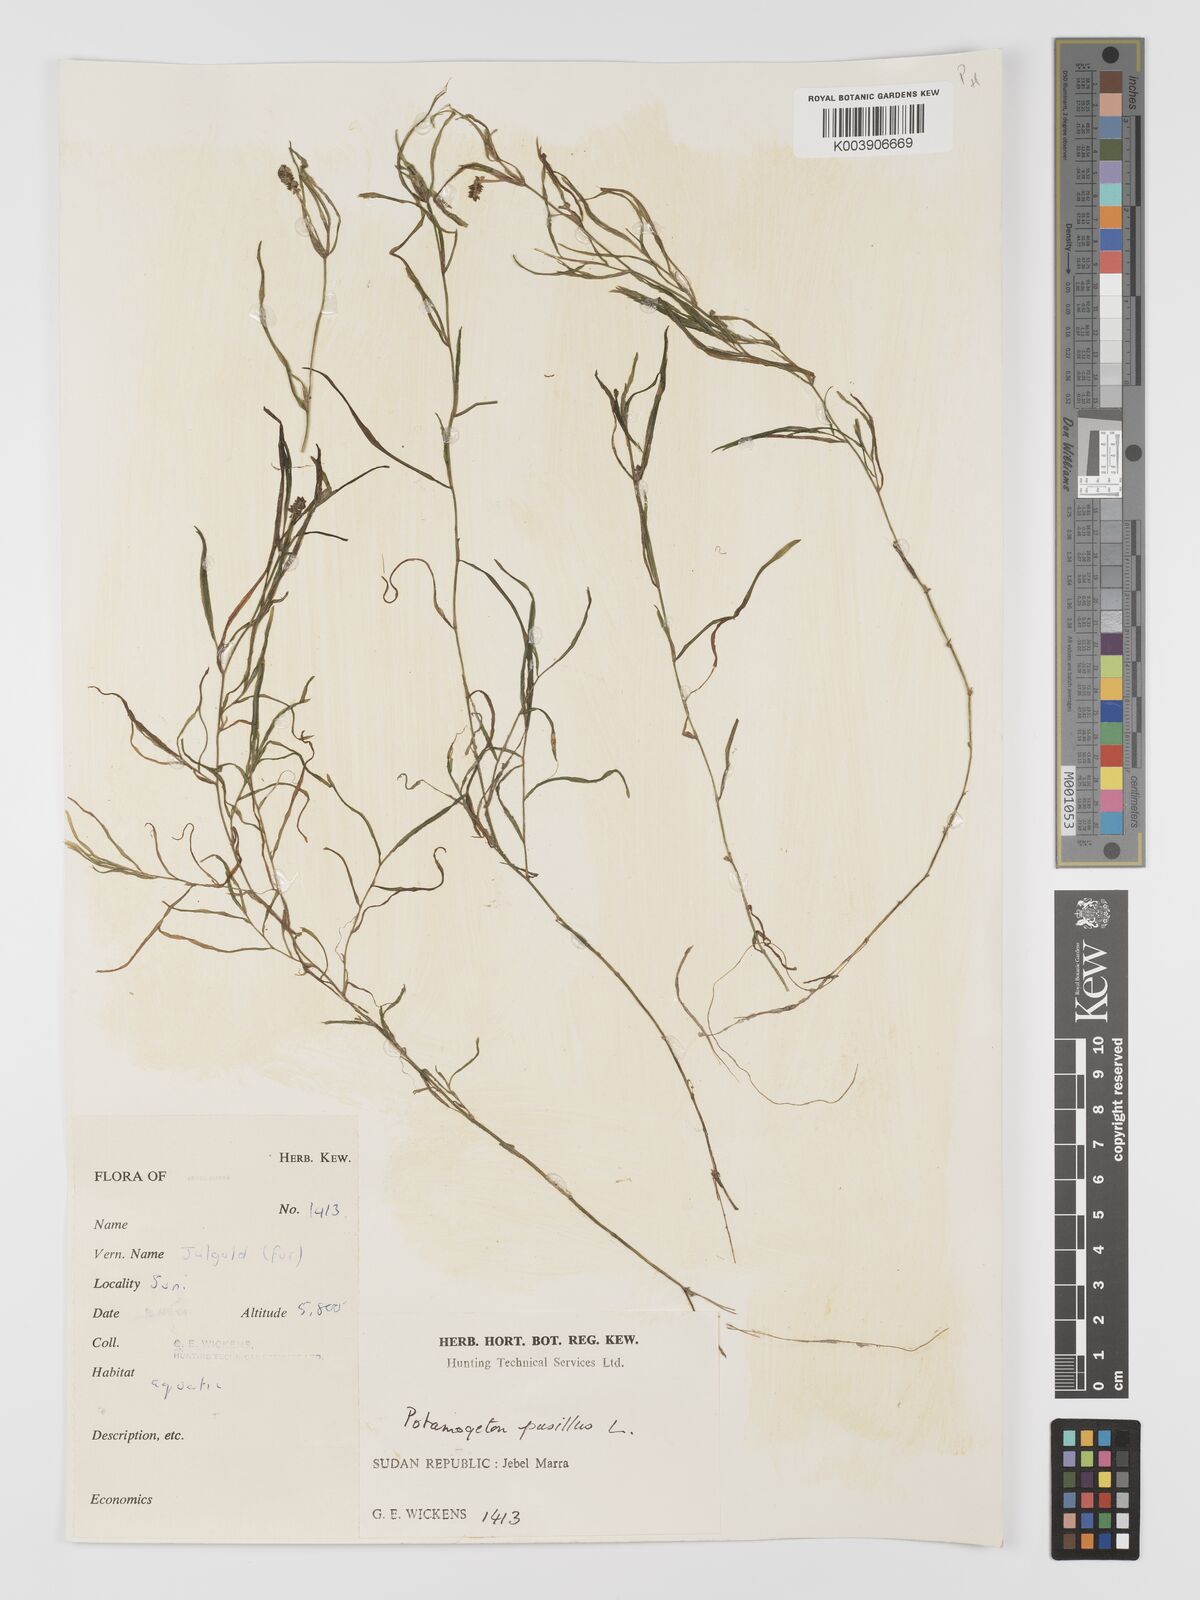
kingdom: Plantae
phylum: Tracheophyta
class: Liliopsida
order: Alismatales
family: Potamogetonaceae
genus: Potamogeton
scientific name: Potamogeton pusillus
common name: Lesser pondweed
